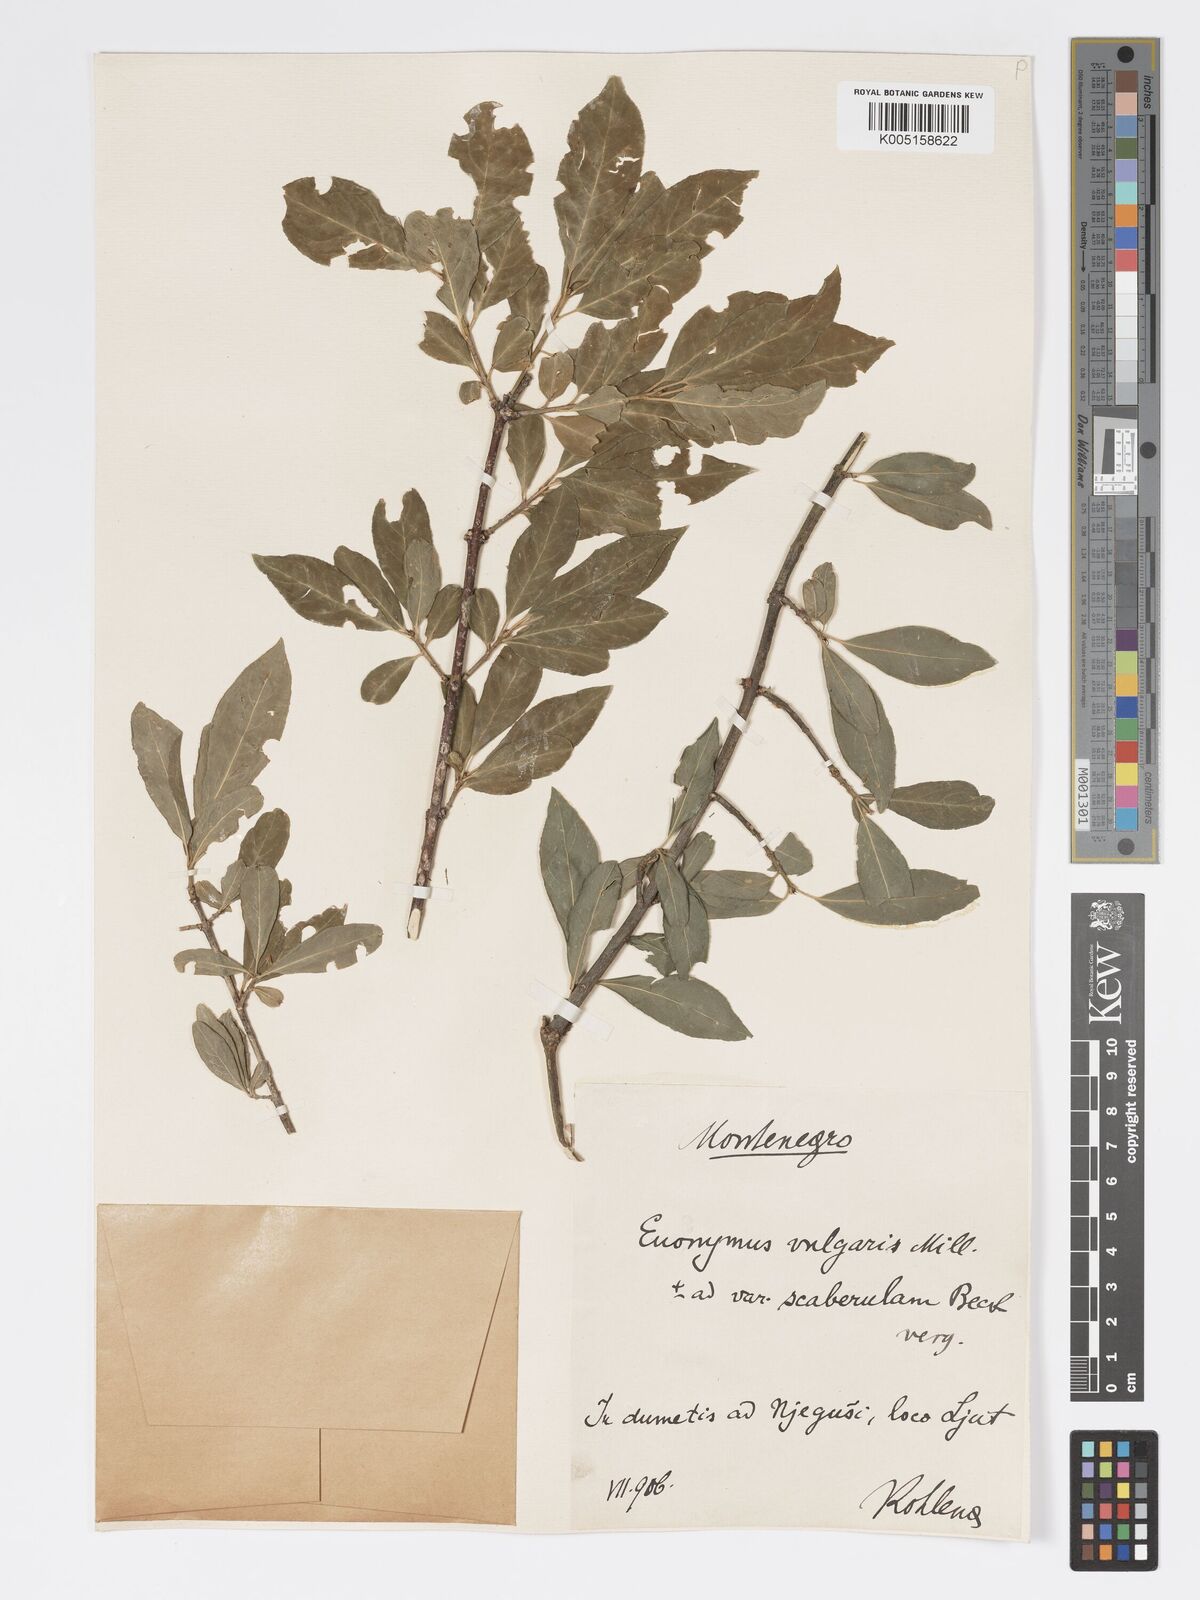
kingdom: Plantae
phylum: Tracheophyta
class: Magnoliopsida
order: Celastrales
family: Celastraceae
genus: Euonymus
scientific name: Euonymus europaeus
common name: Spindle
